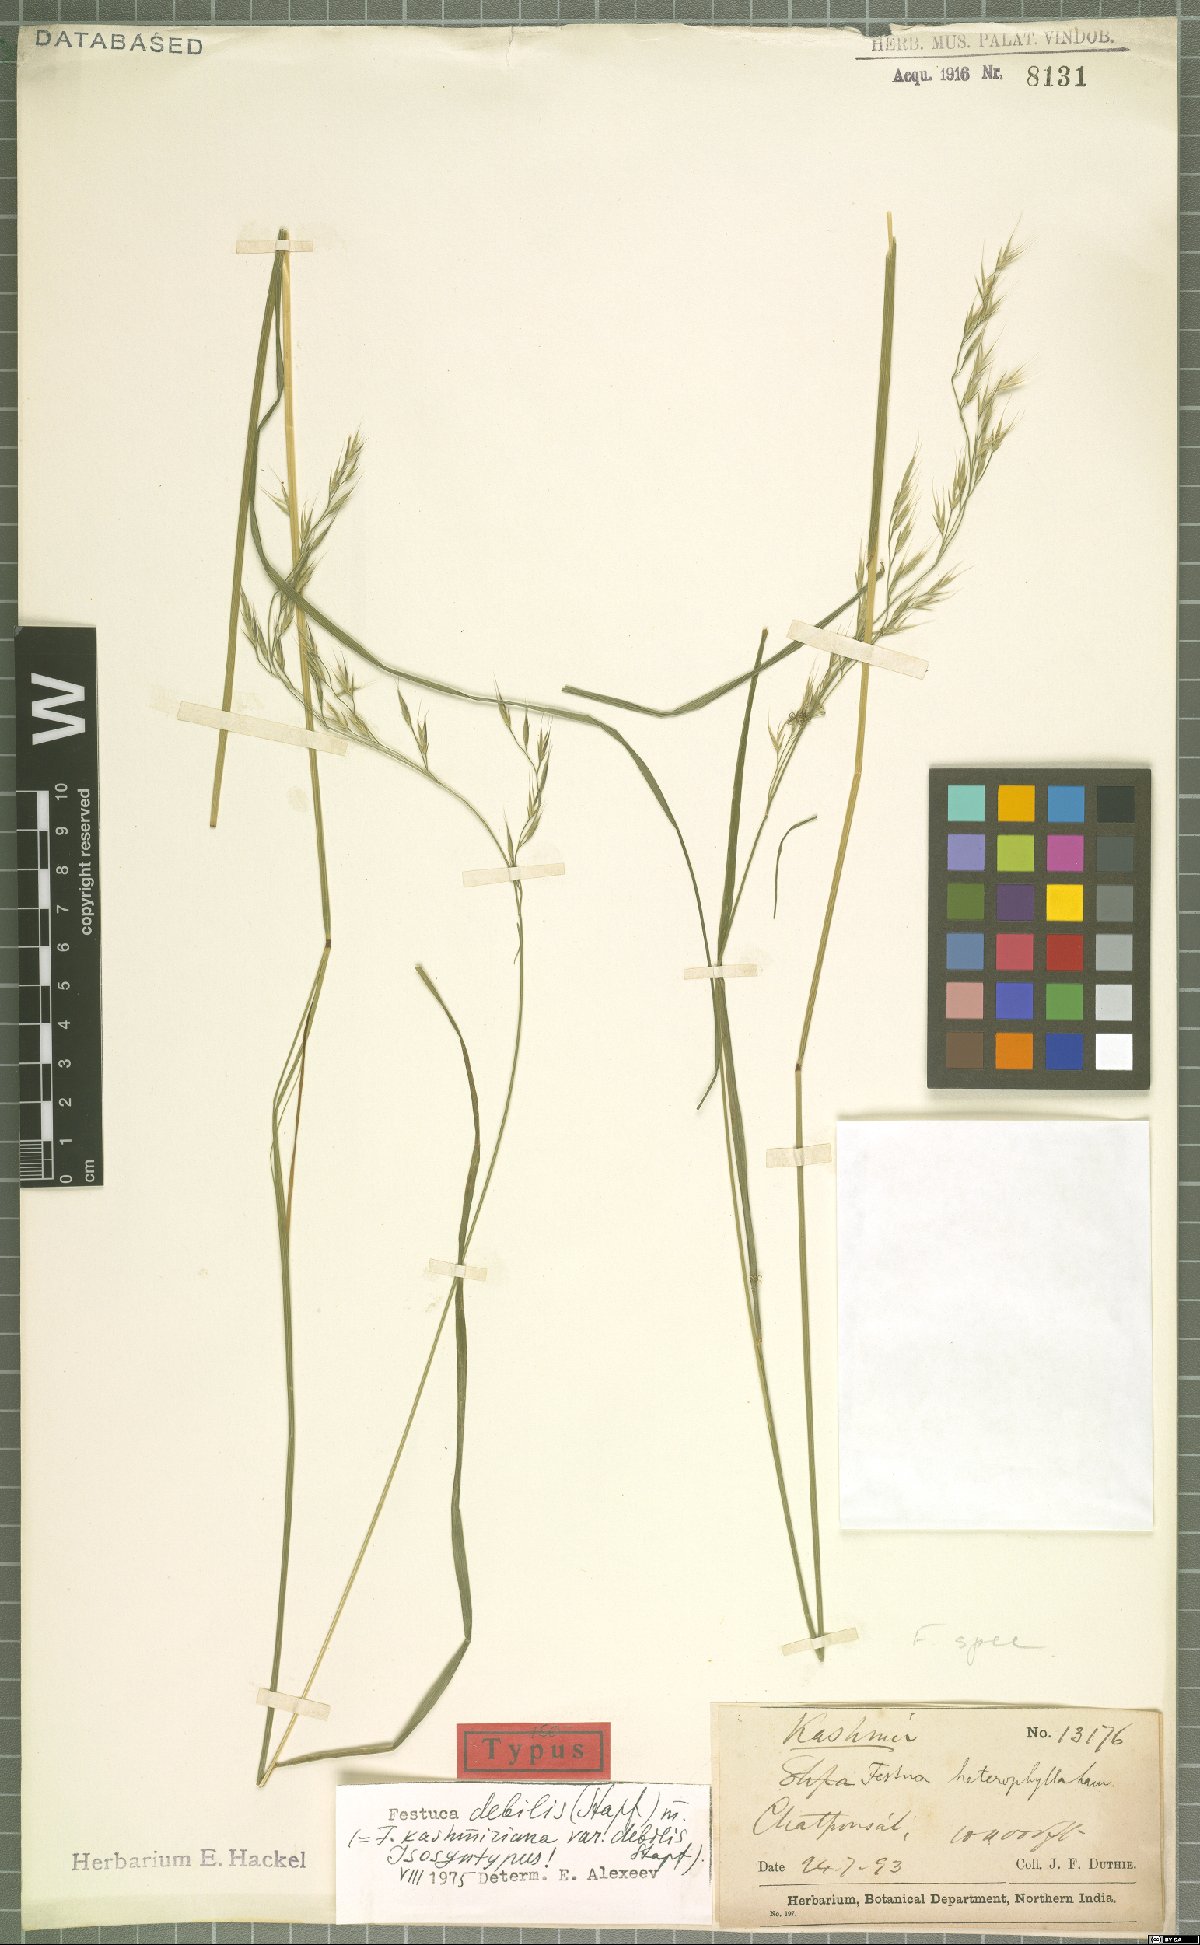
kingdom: Plantae
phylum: Tracheophyta
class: Liliopsida
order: Poales
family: Poaceae
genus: Festuca
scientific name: Festuca debilis
